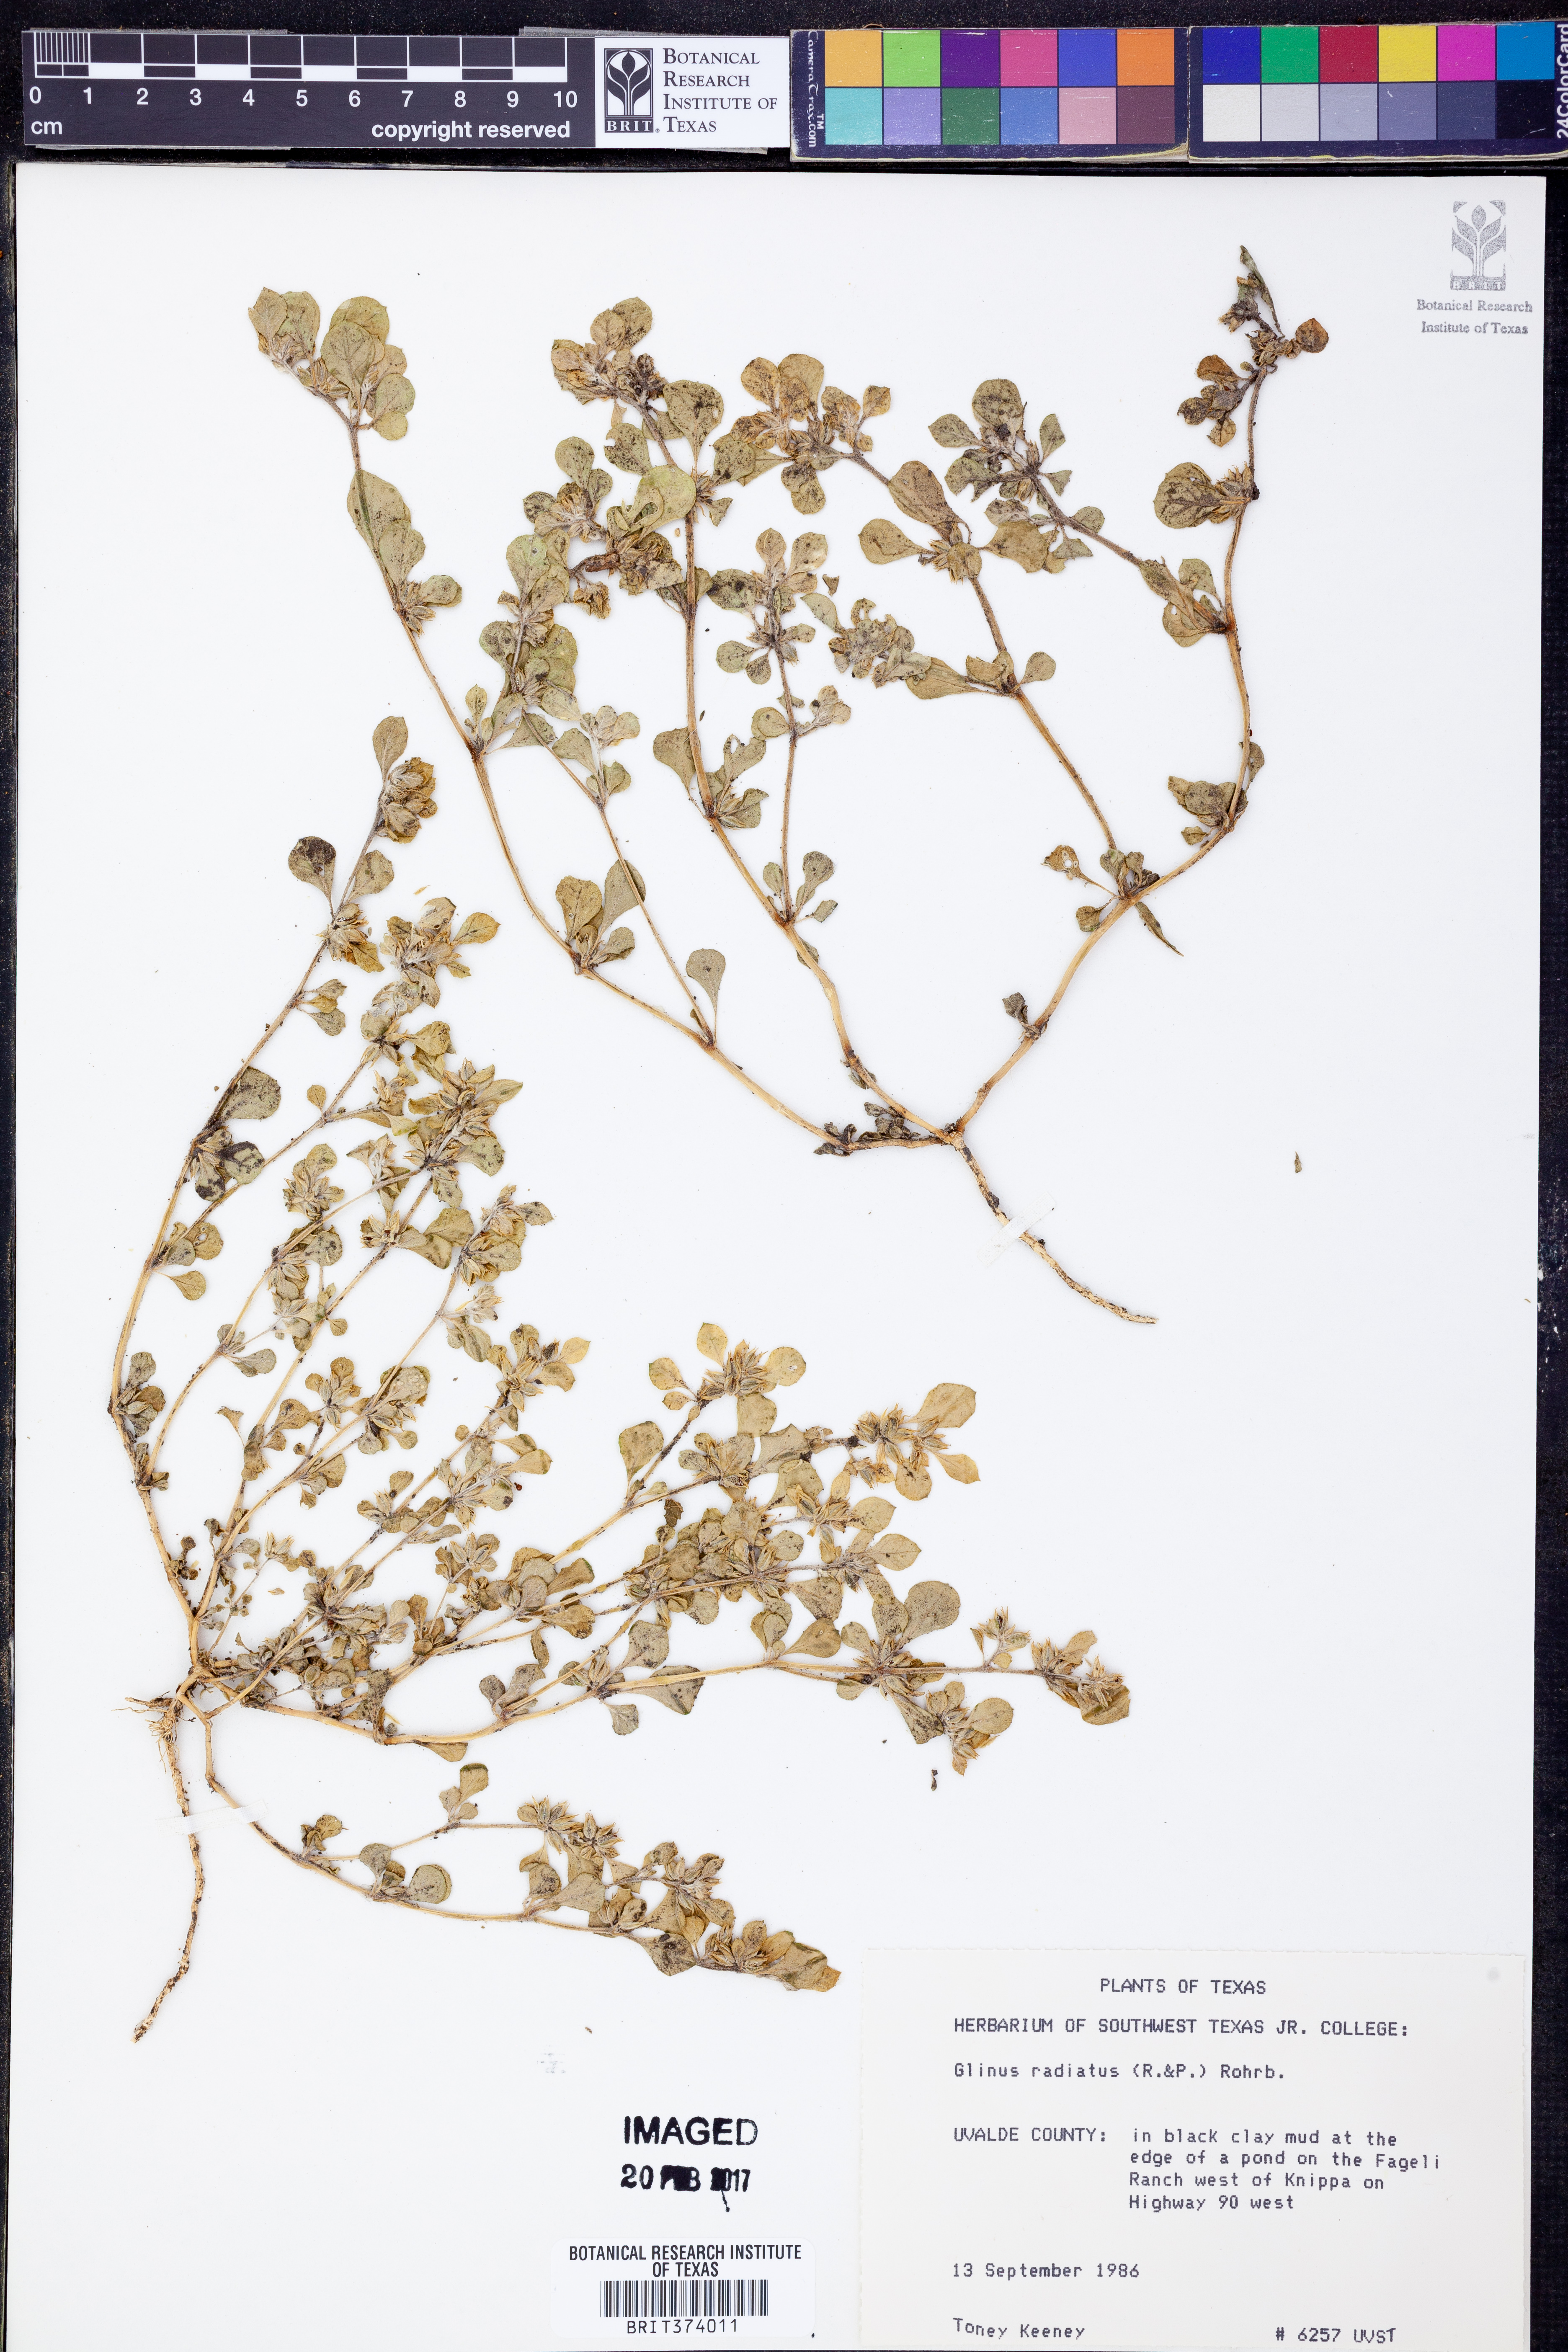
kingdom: Plantae
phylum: Tracheophyta
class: Magnoliopsida
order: Caryophyllales
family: Molluginaceae
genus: Glinus
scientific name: Glinus radiatus
